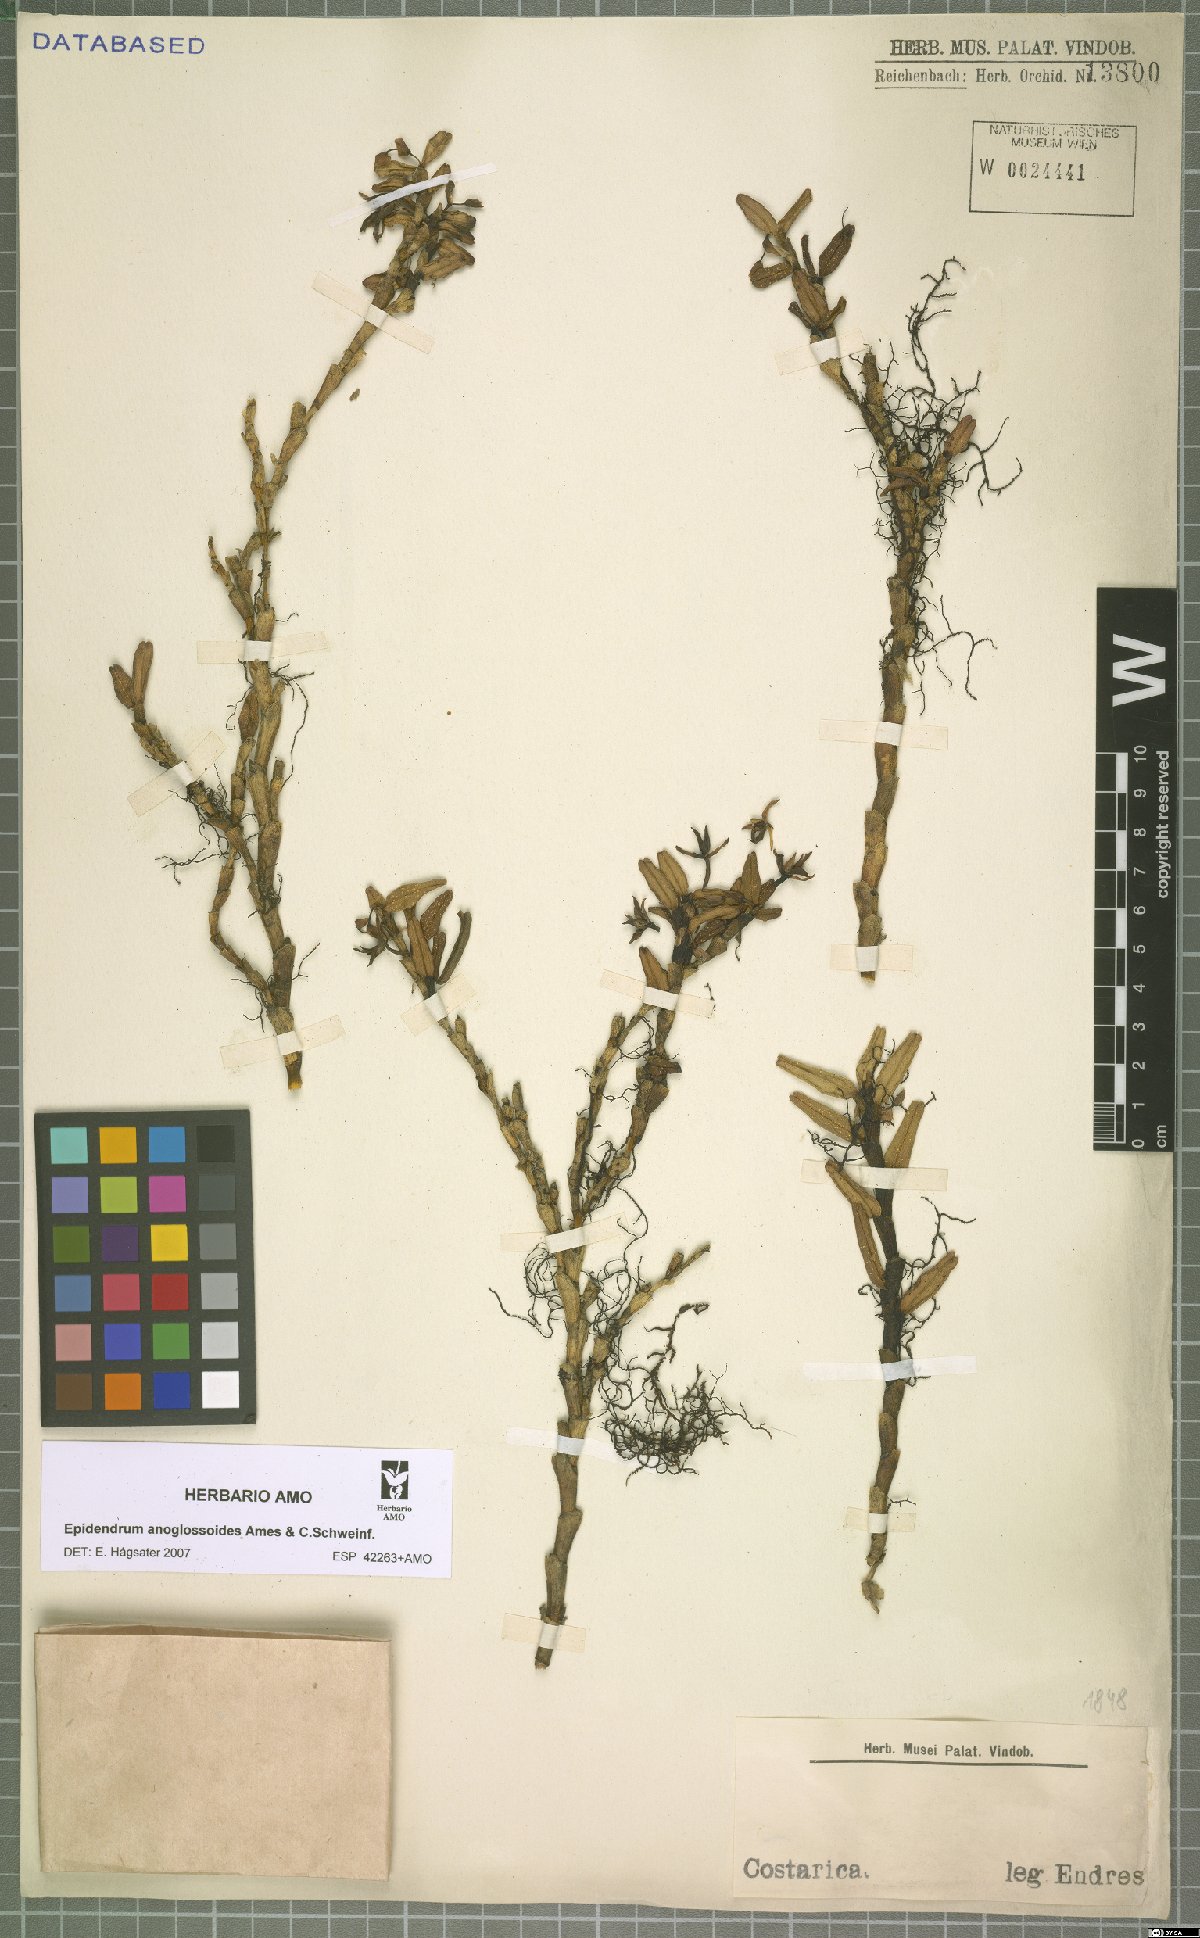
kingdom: Plantae
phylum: Tracheophyta
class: Liliopsida
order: Asparagales
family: Orchidaceae
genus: Epidendrum
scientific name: Epidendrum anoglossoides
